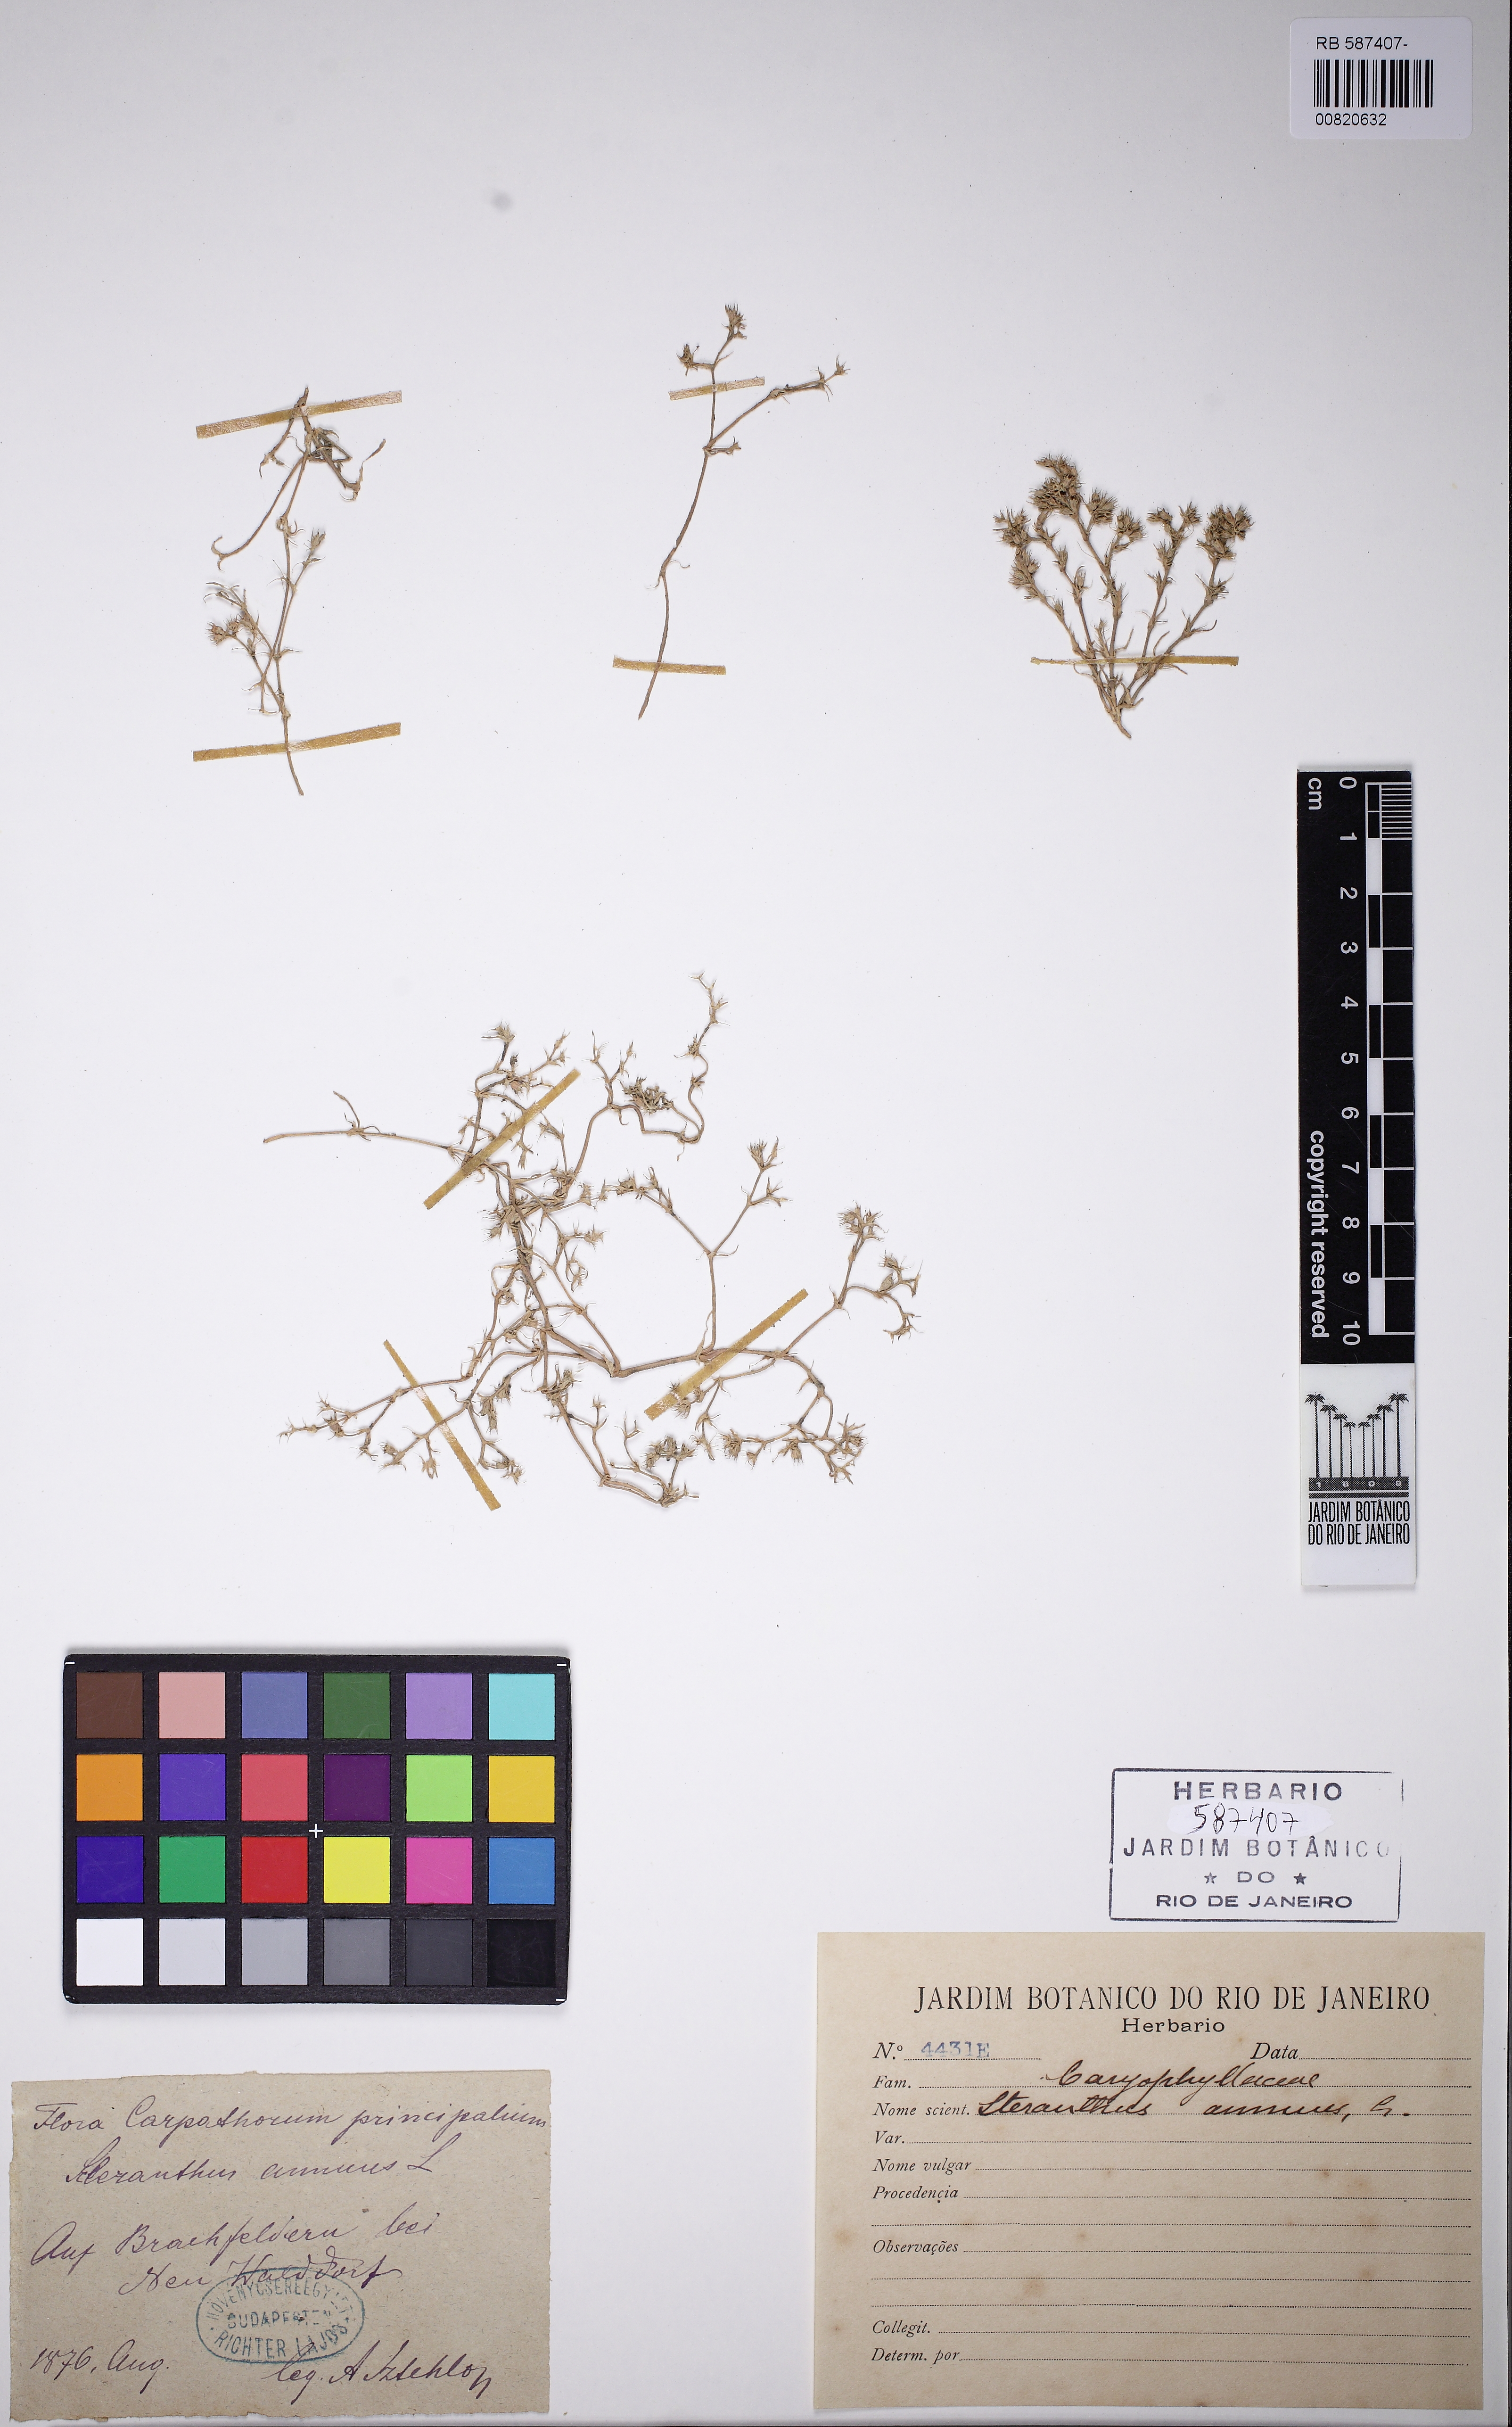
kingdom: Plantae
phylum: Tracheophyta
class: Magnoliopsida
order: Caryophyllales
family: Caryophyllaceae
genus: Scleranthus
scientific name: Scleranthus annuus
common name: Annual knawel
